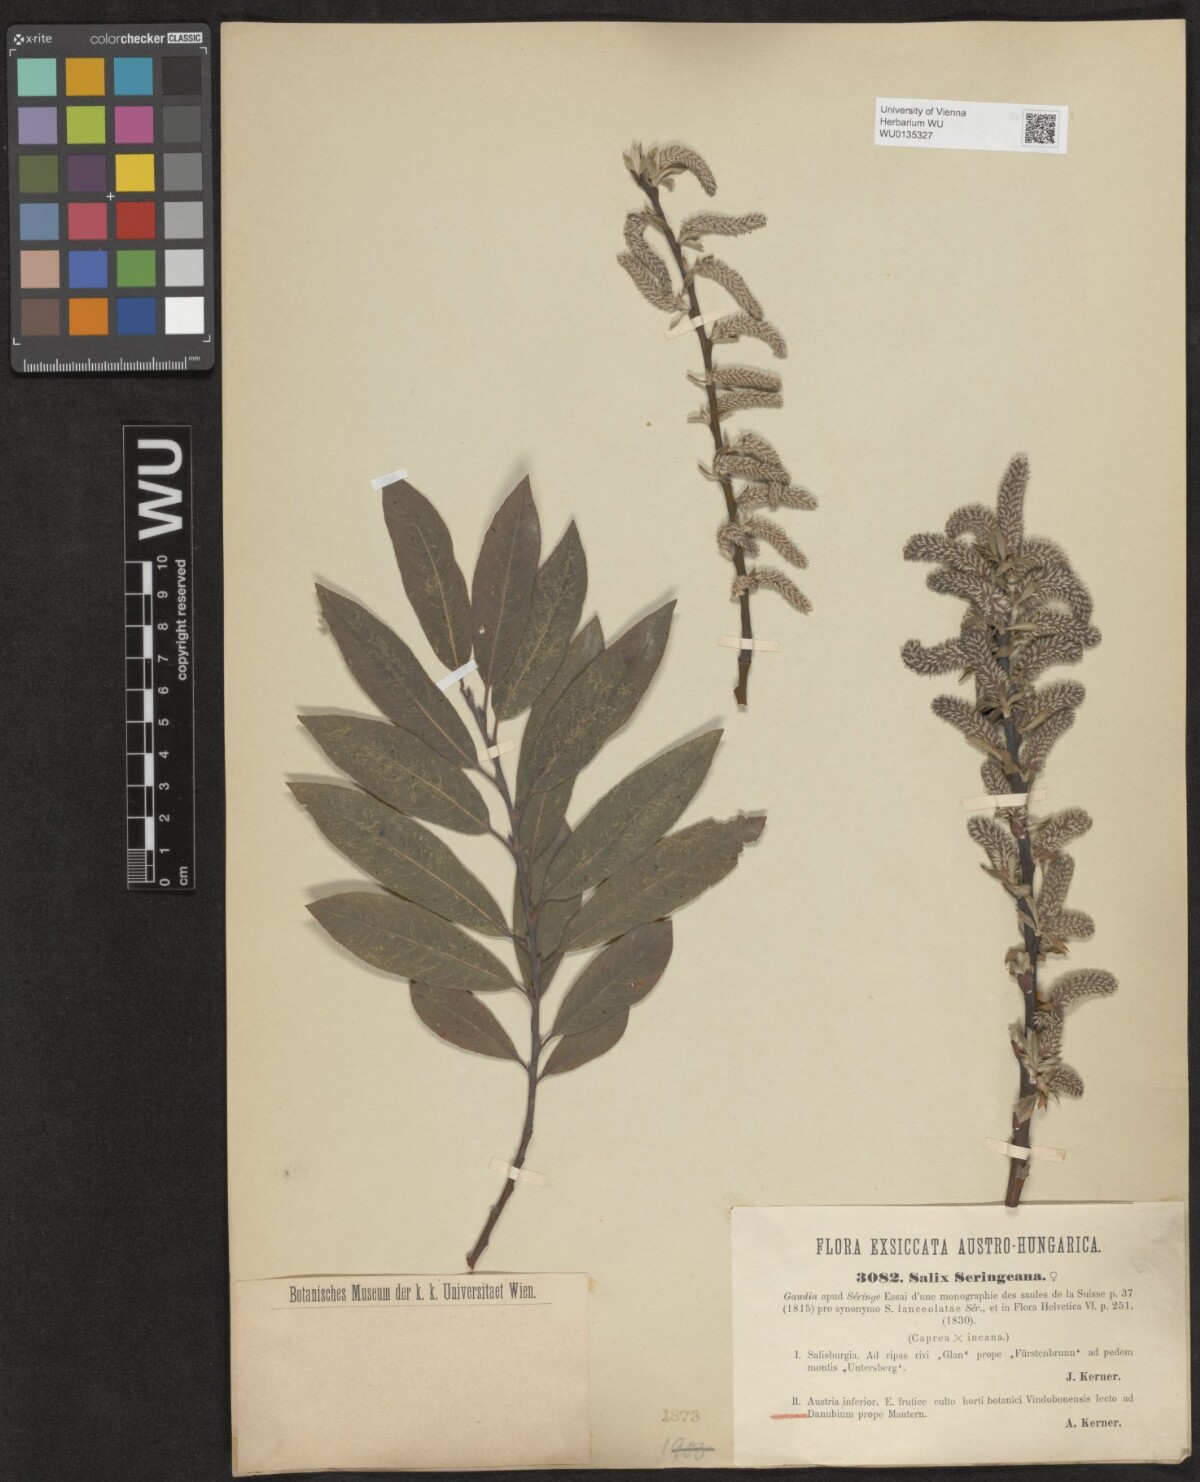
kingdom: Plantae
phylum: Tracheophyta
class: Magnoliopsida
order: Malpighiales
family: Salicaceae
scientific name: Salicaceae
